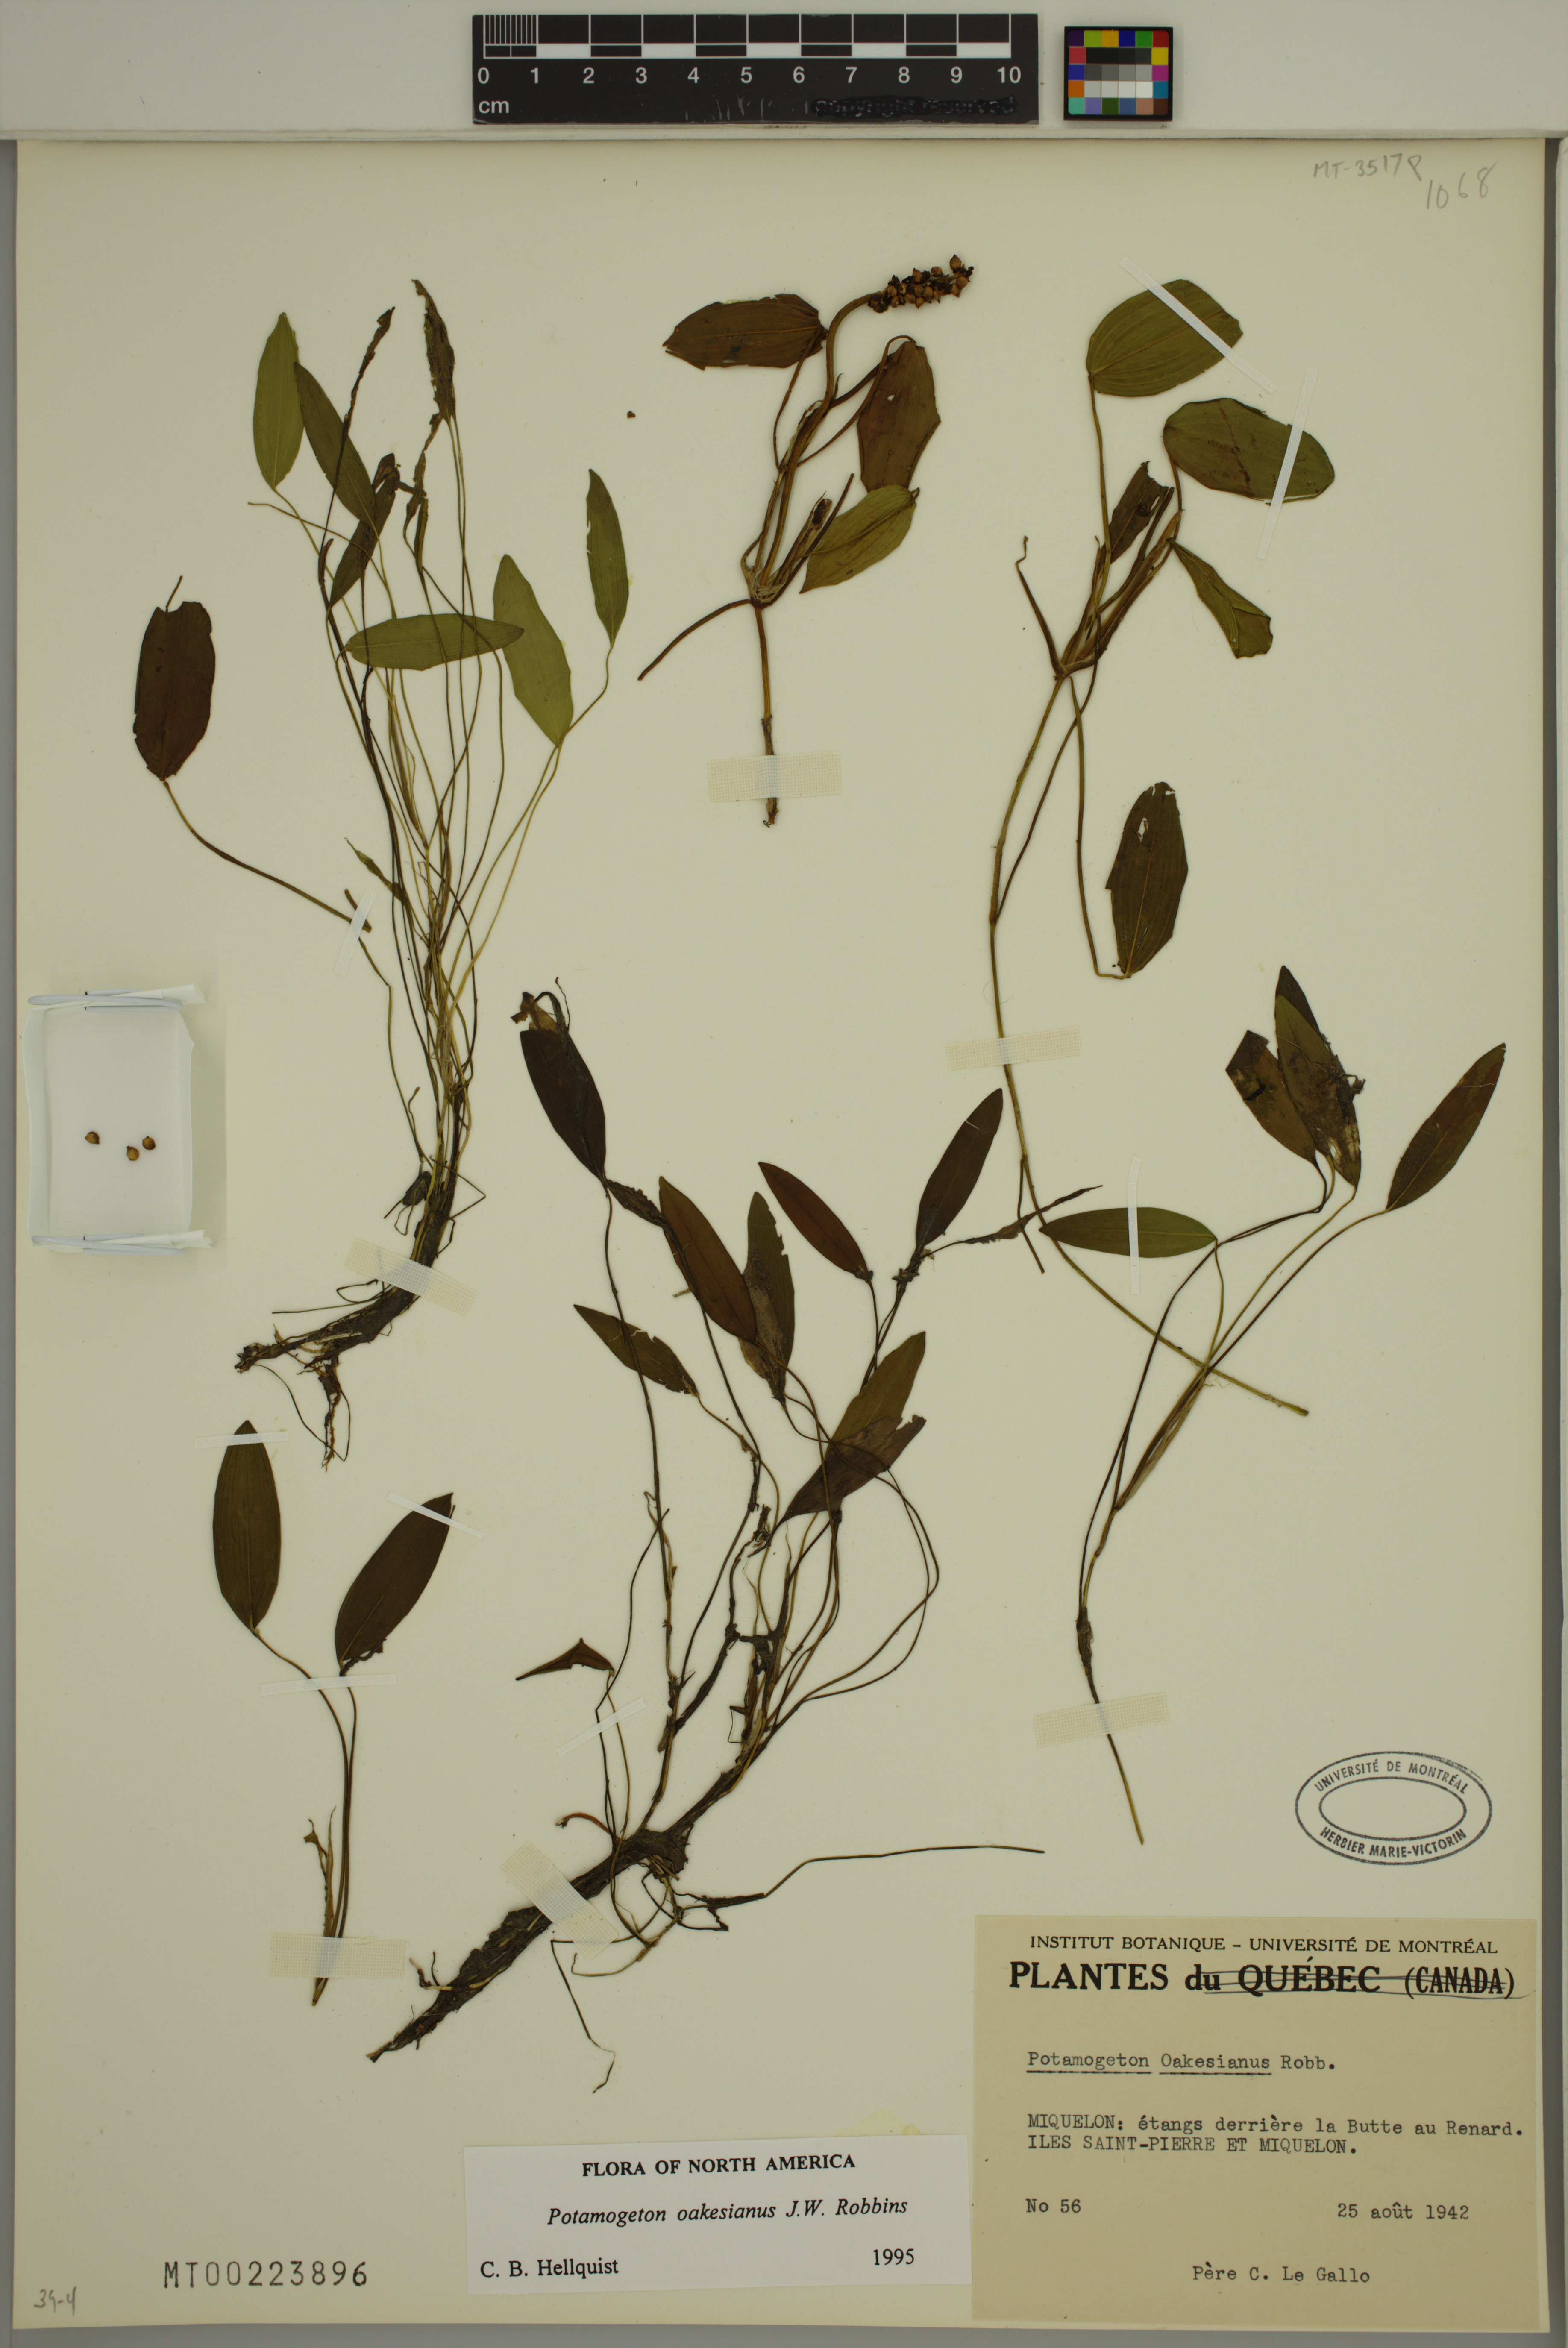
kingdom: Plantae
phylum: Tracheophyta
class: Liliopsida
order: Alismatales
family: Potamogetonaceae
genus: Potamogeton
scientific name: Potamogeton oakesianus
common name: Oakes' pondweed
